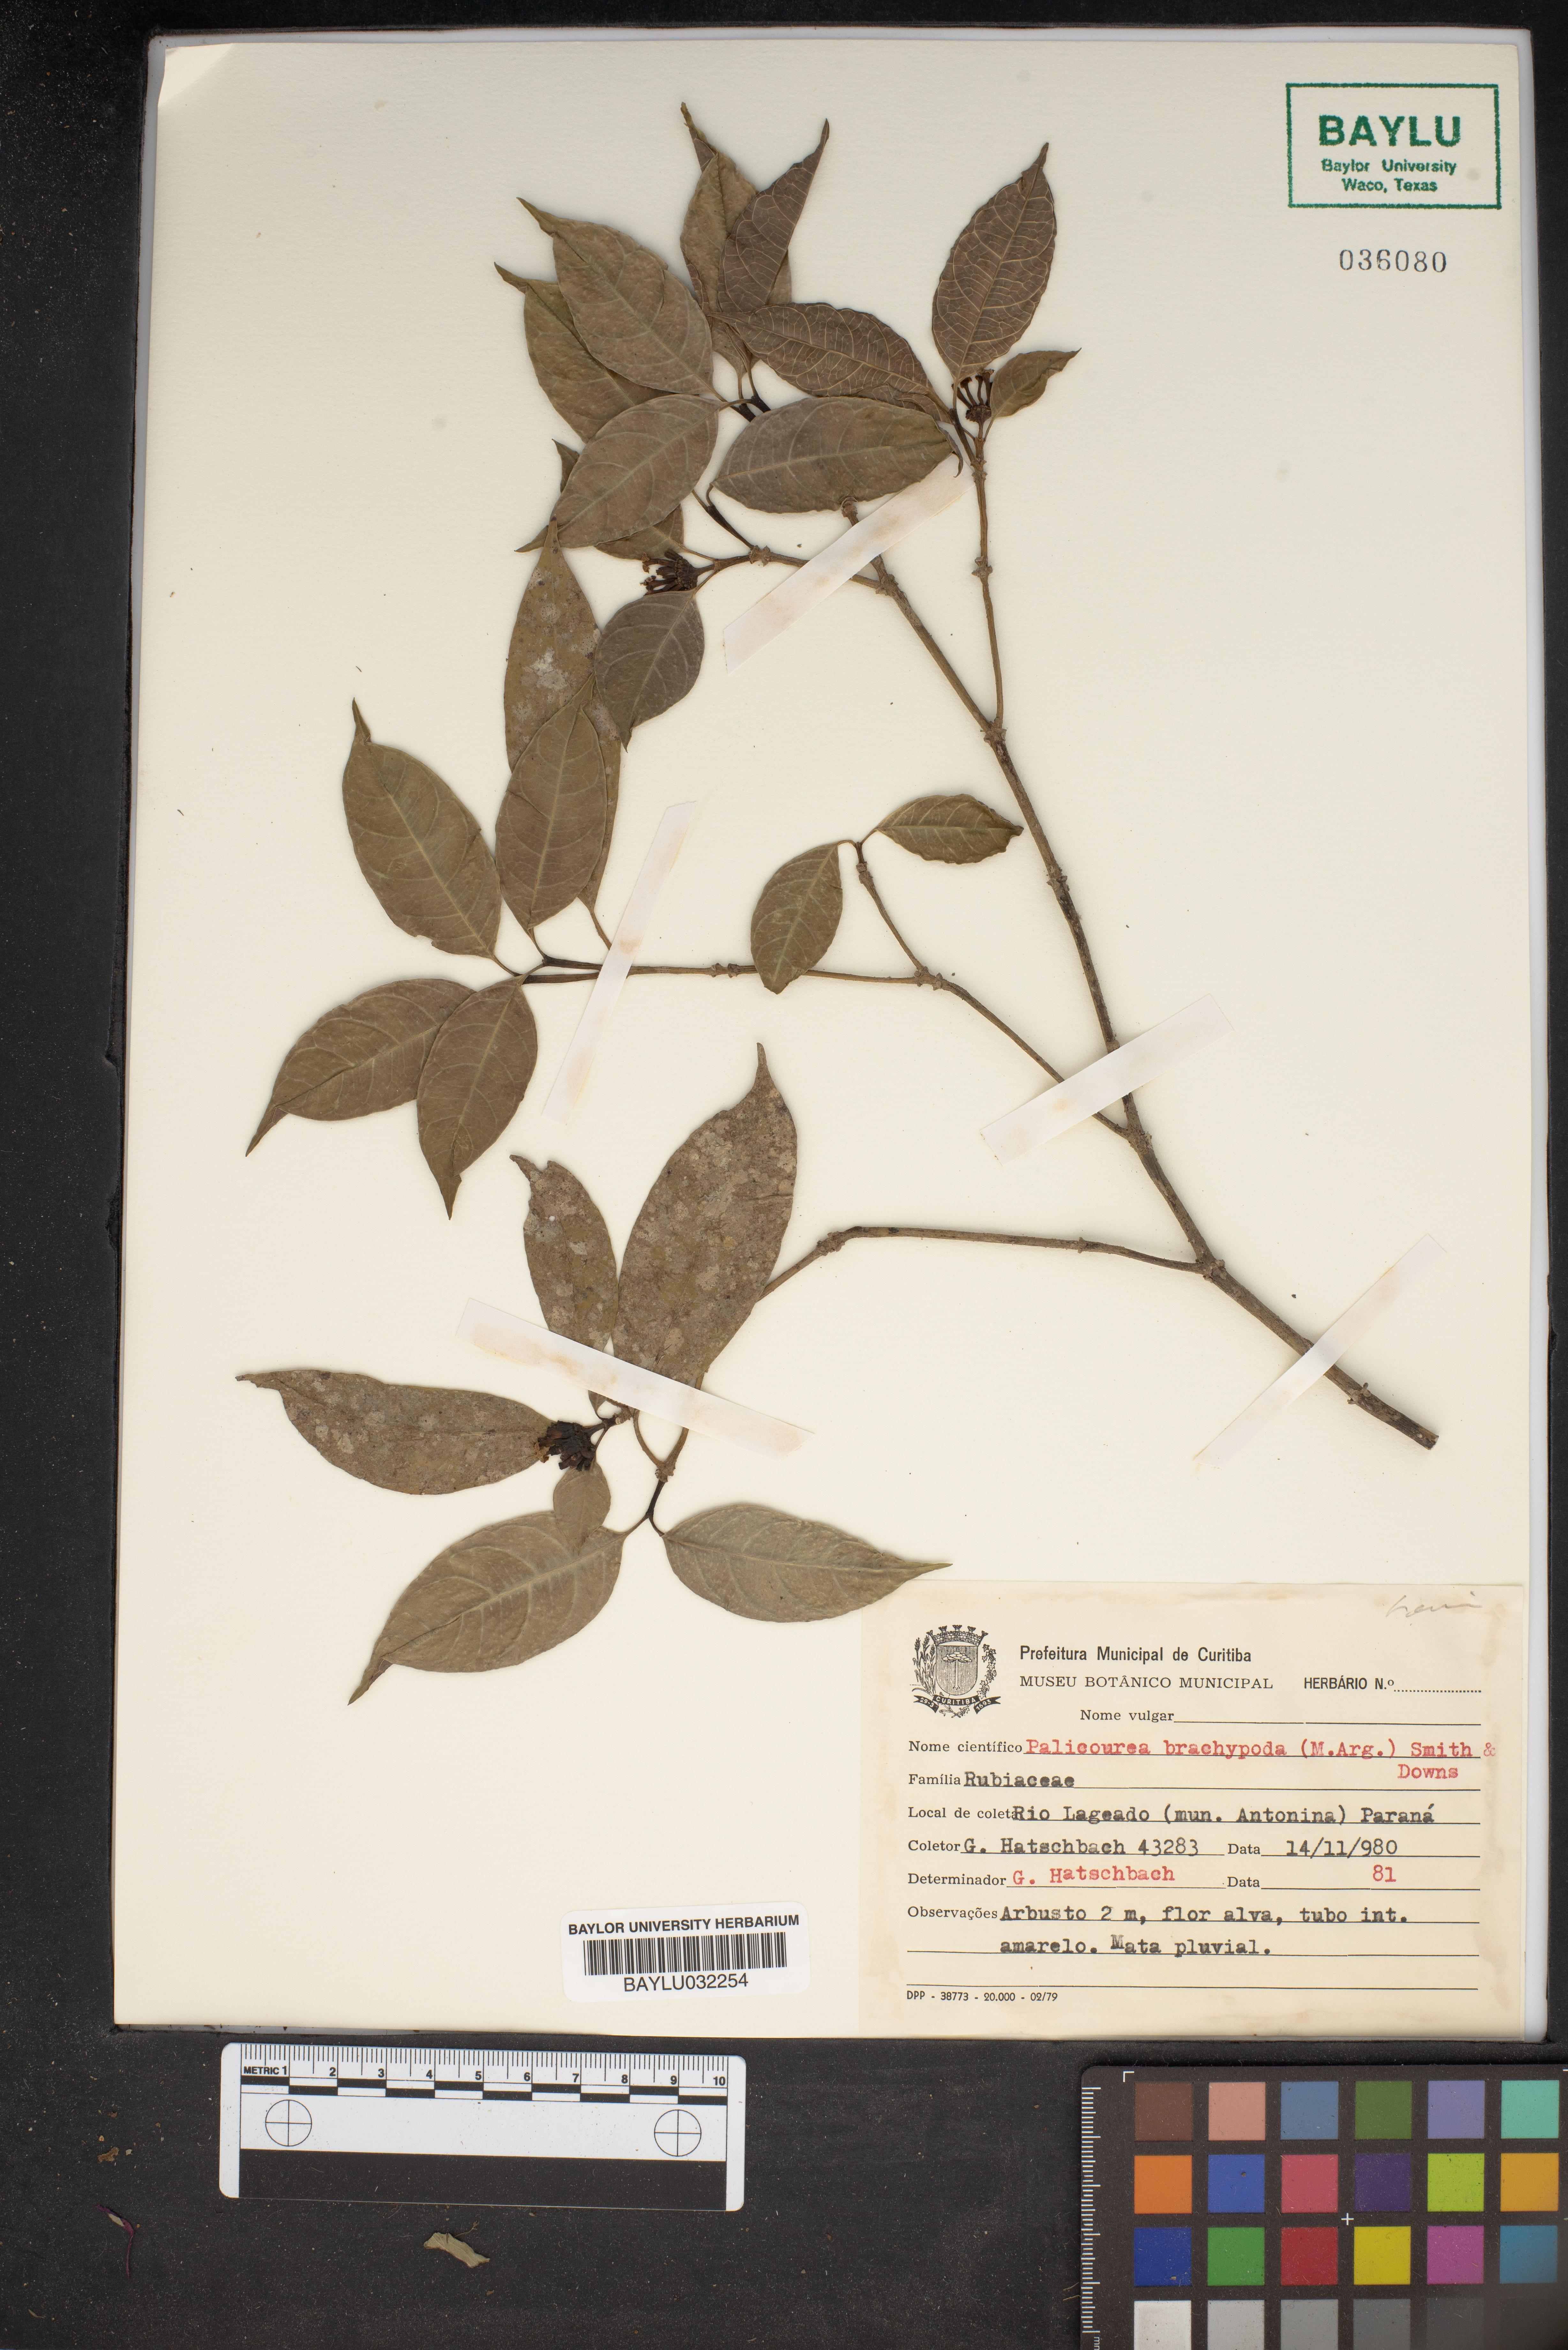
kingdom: Plantae
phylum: Tracheophyta
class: Magnoliopsida
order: Gentianales
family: Rubiaceae
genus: Psychotria
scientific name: Psychotria brachypoda
